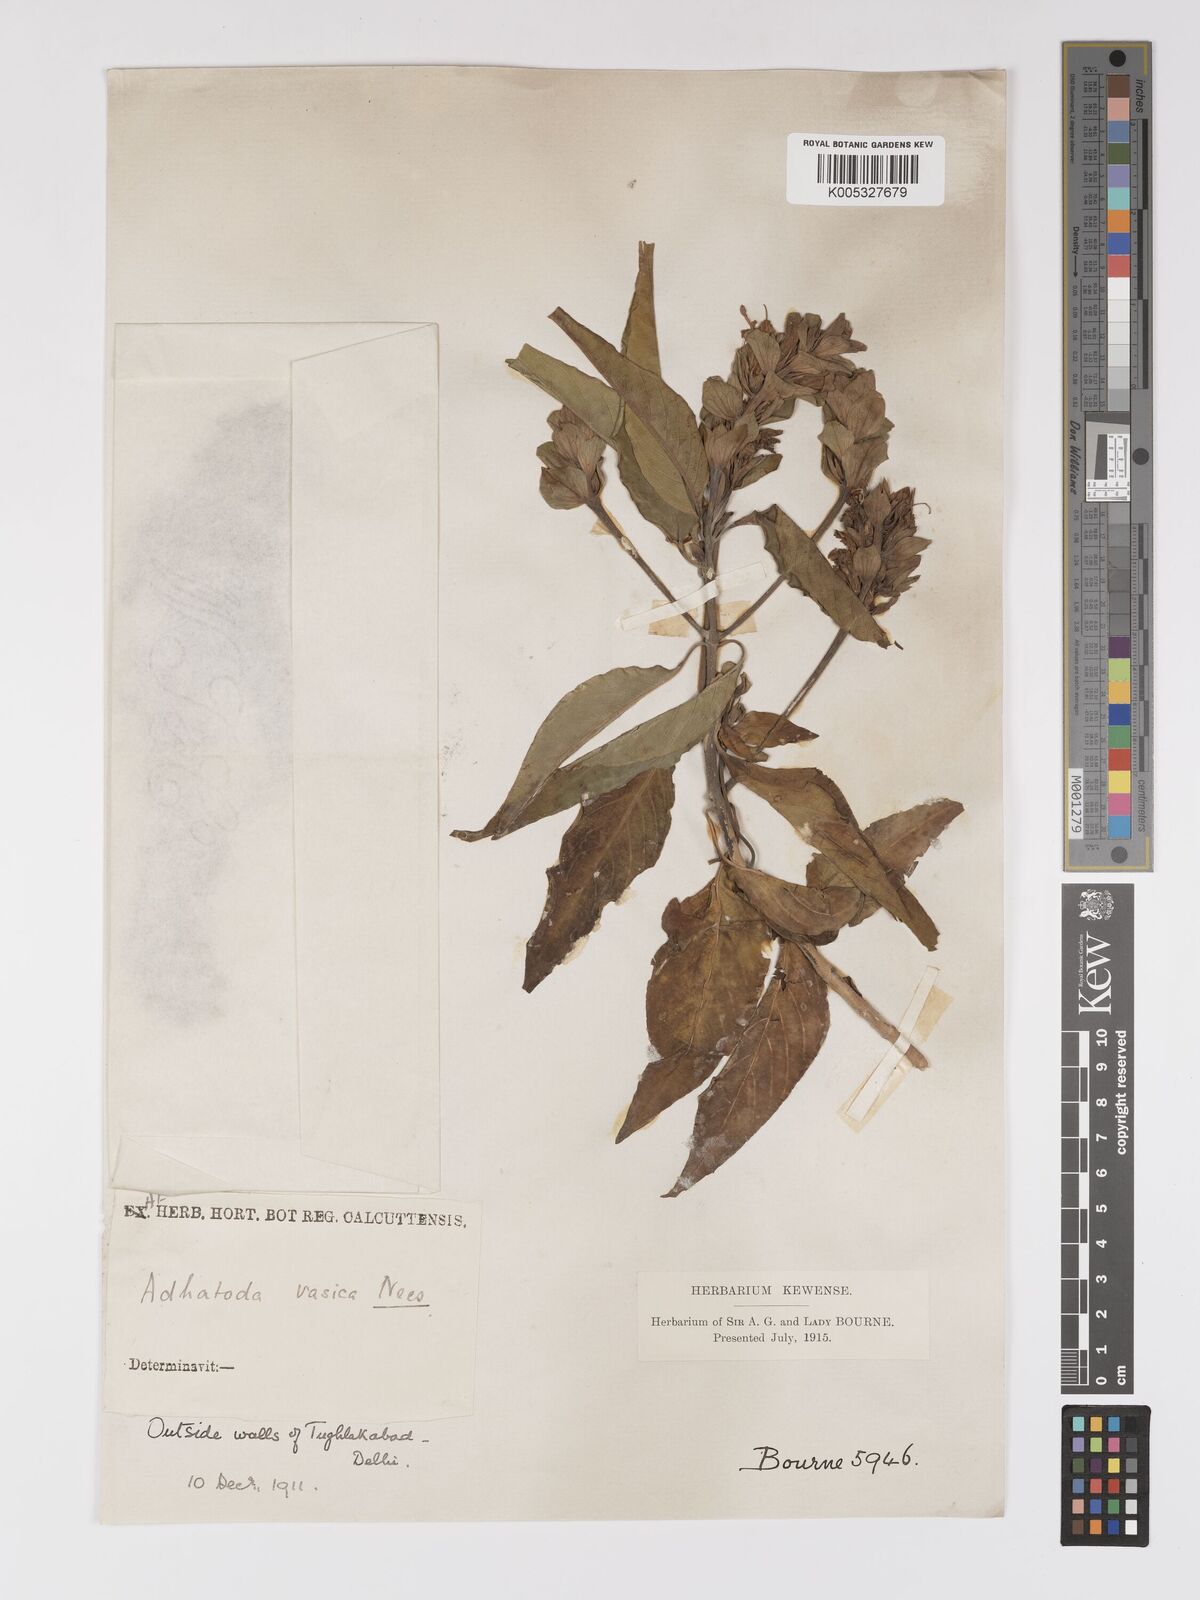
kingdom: Plantae
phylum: Tracheophyta
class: Magnoliopsida
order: Lamiales
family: Acanthaceae
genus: Ecbolium
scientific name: Ecbolium ligustrinum
